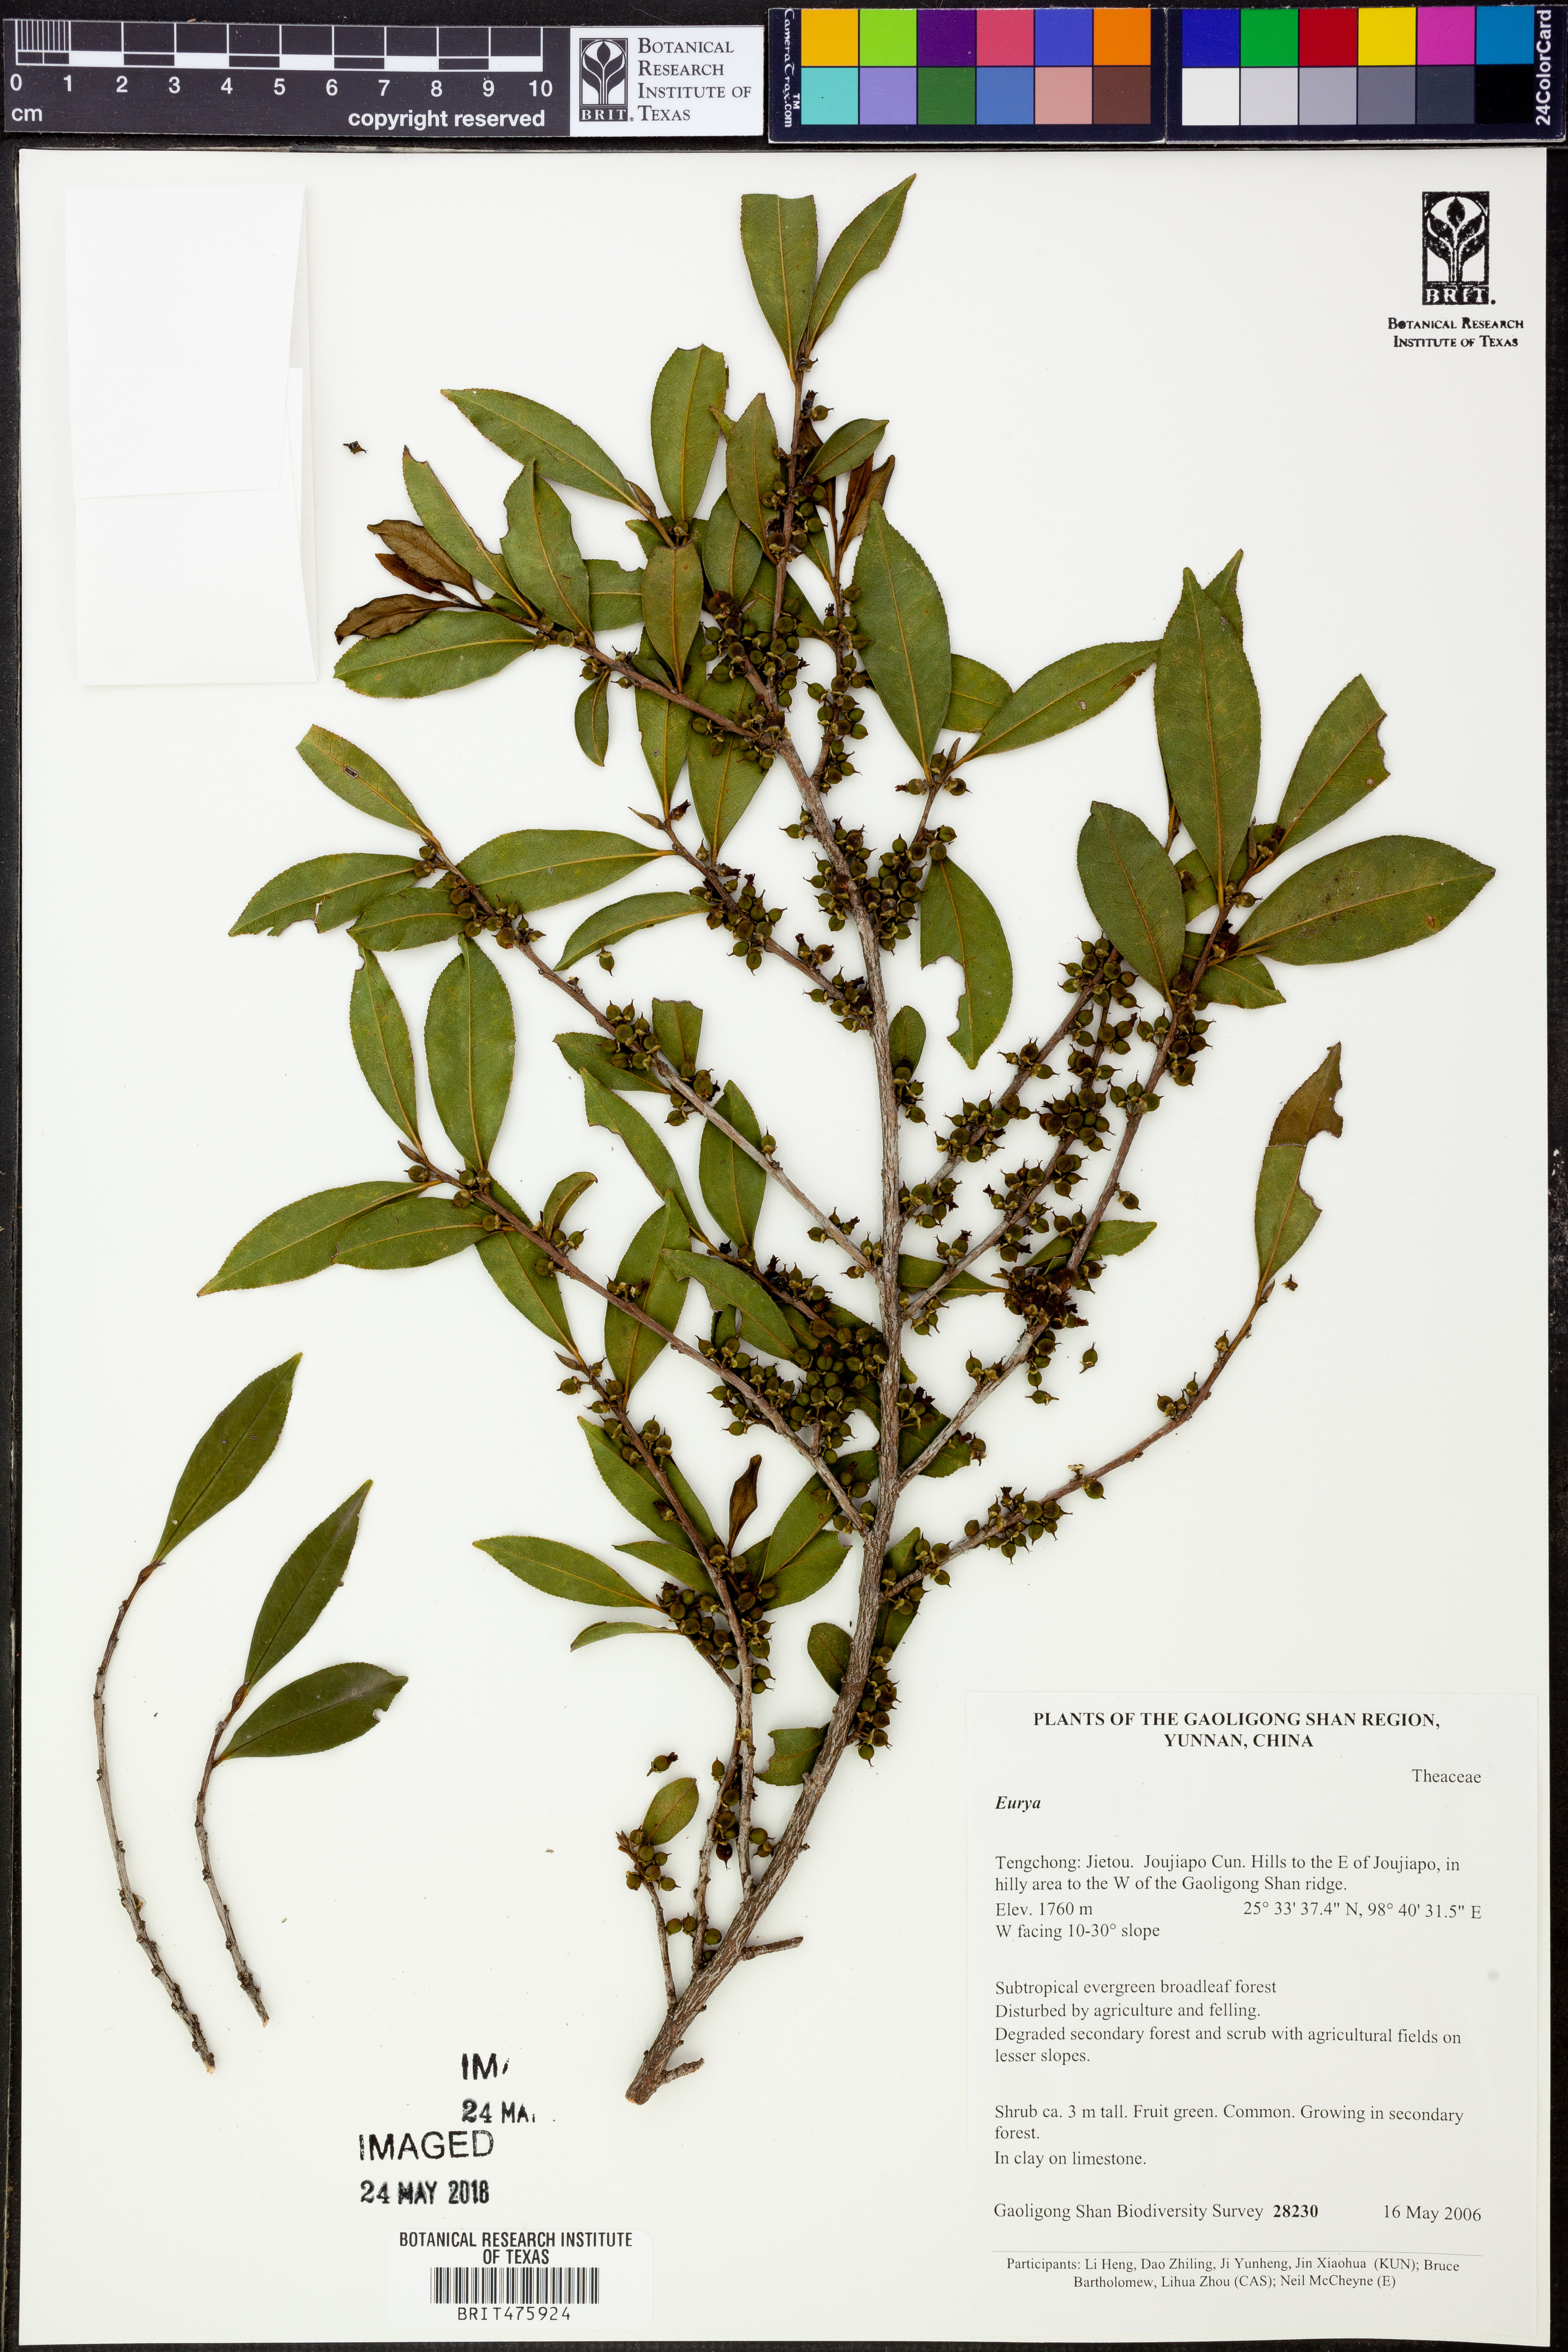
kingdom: Plantae
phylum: Tracheophyta
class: Magnoliopsida
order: Ericales
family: Pentaphylacaceae
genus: Eurya
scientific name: Eurya
